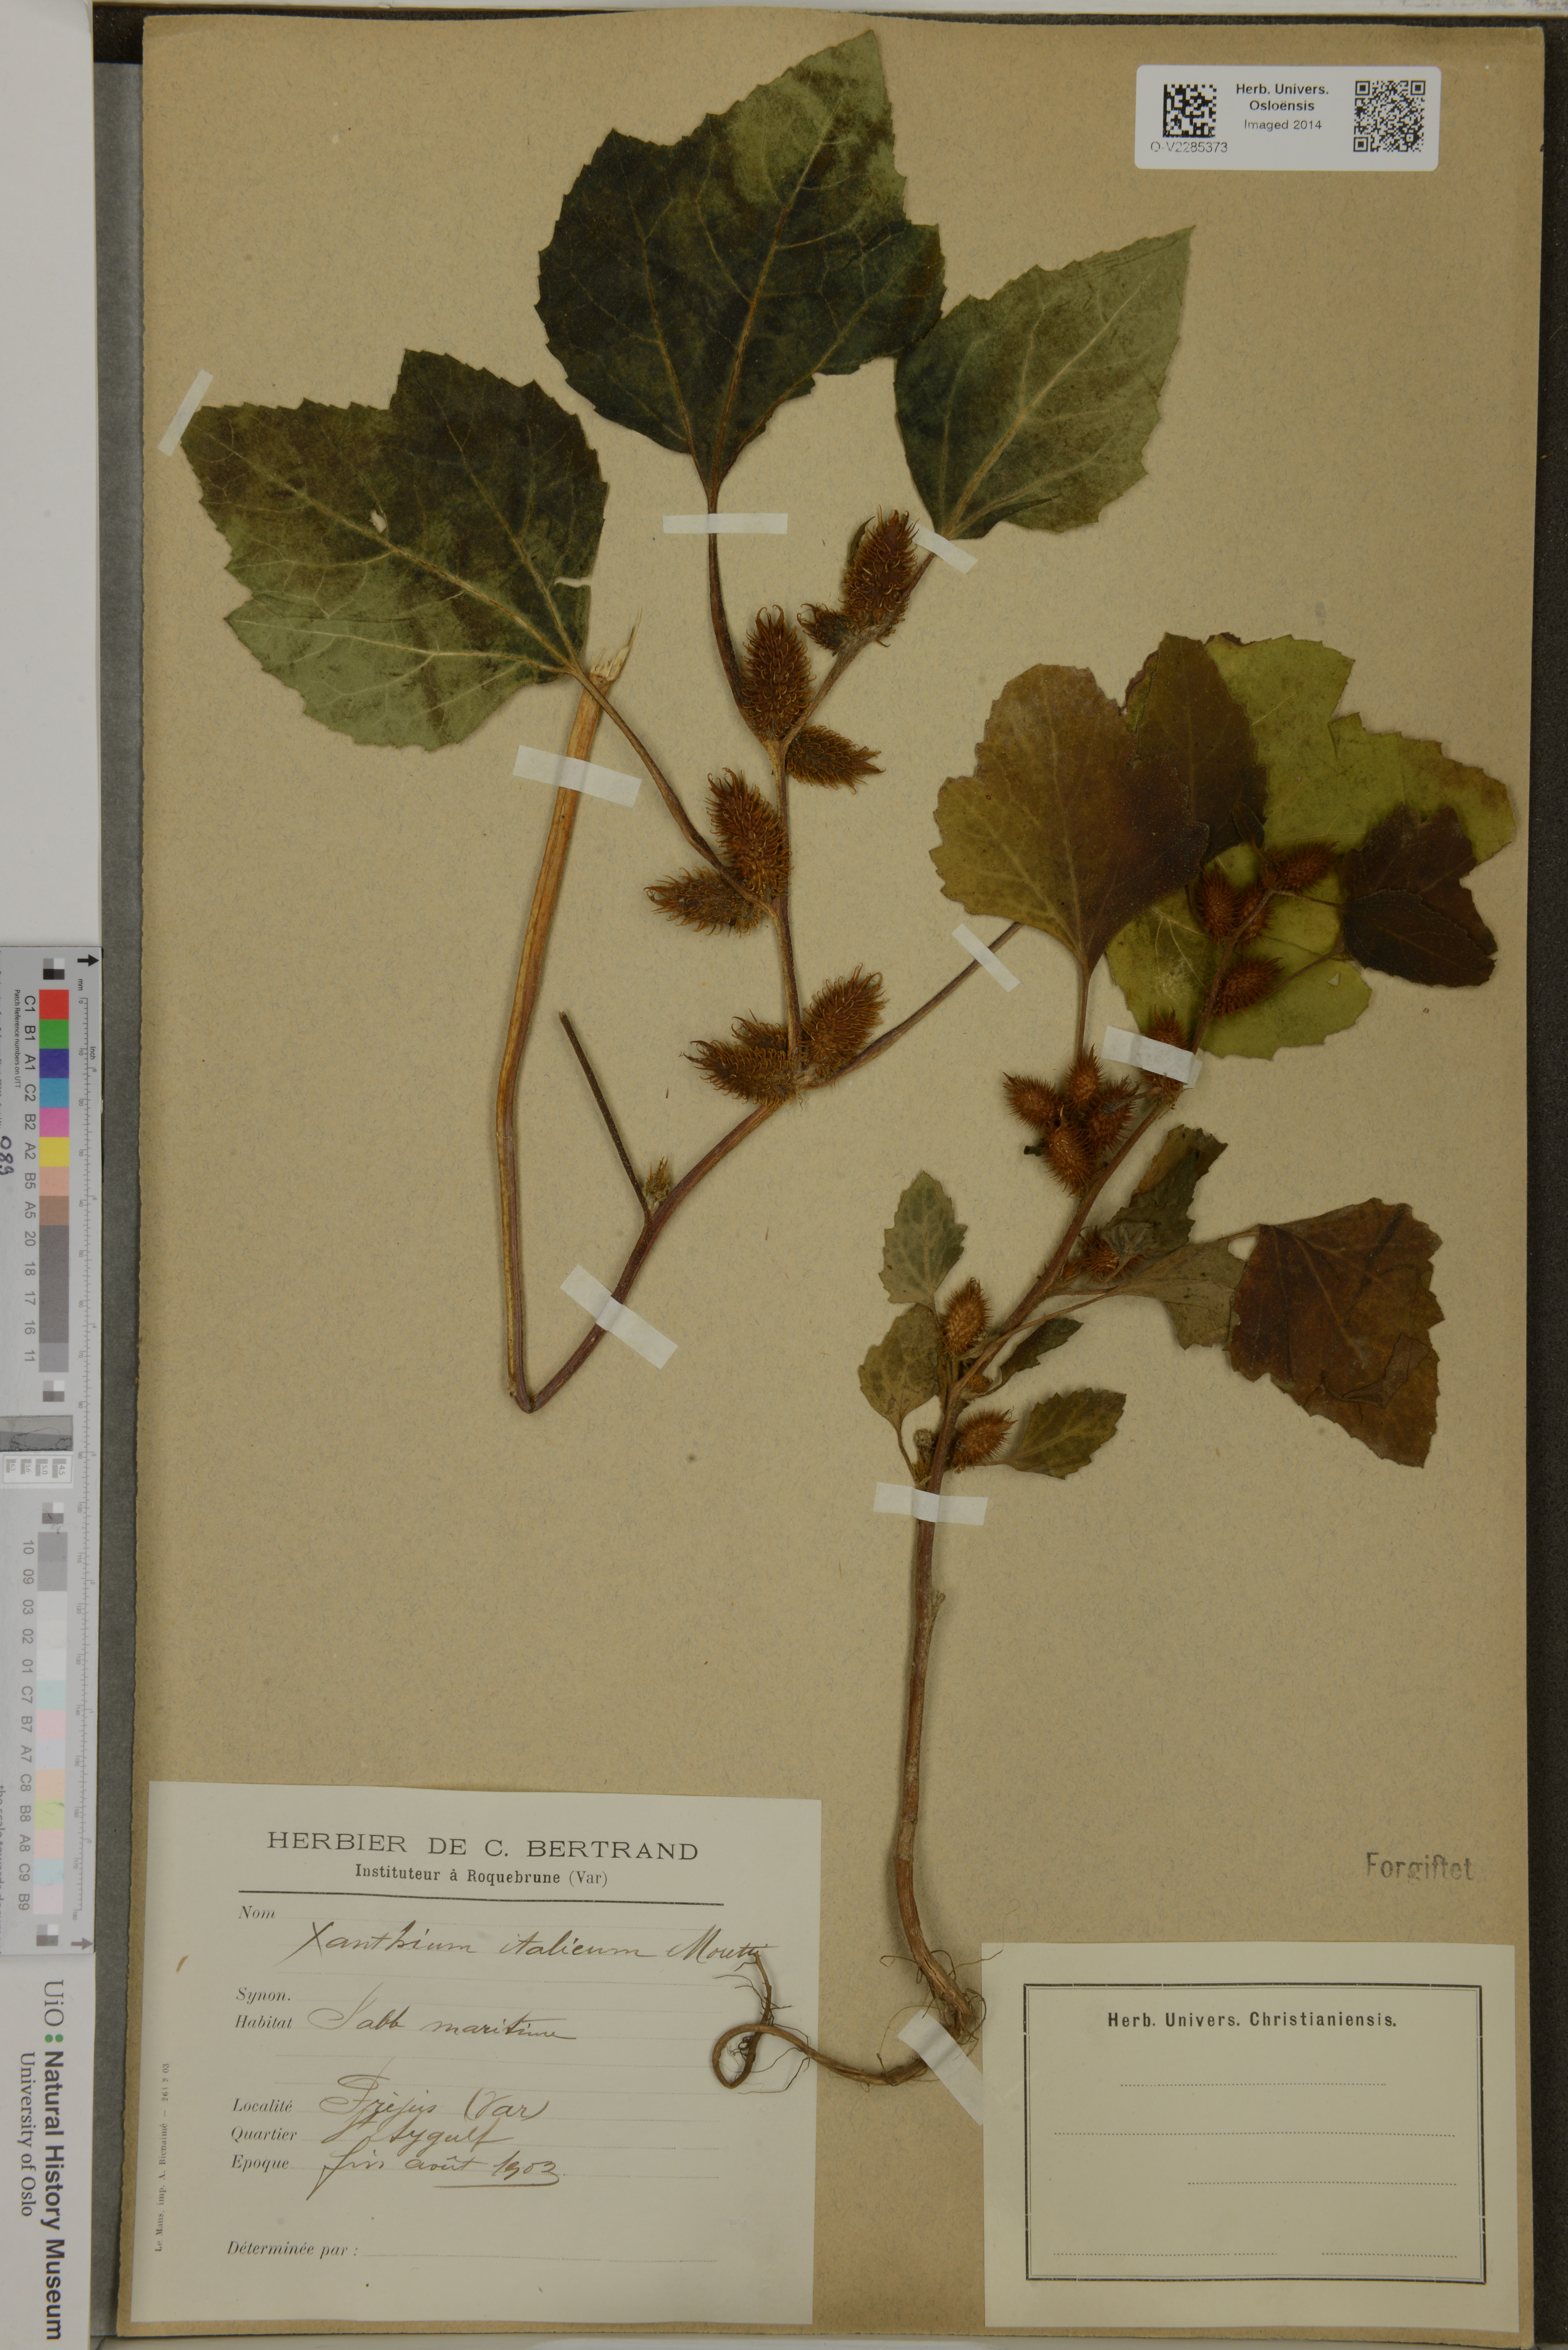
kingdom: Plantae
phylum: Tracheophyta
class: Magnoliopsida
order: Asterales
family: Asteraceae
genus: Xanthium
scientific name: Xanthium orientale
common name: Californian burr
